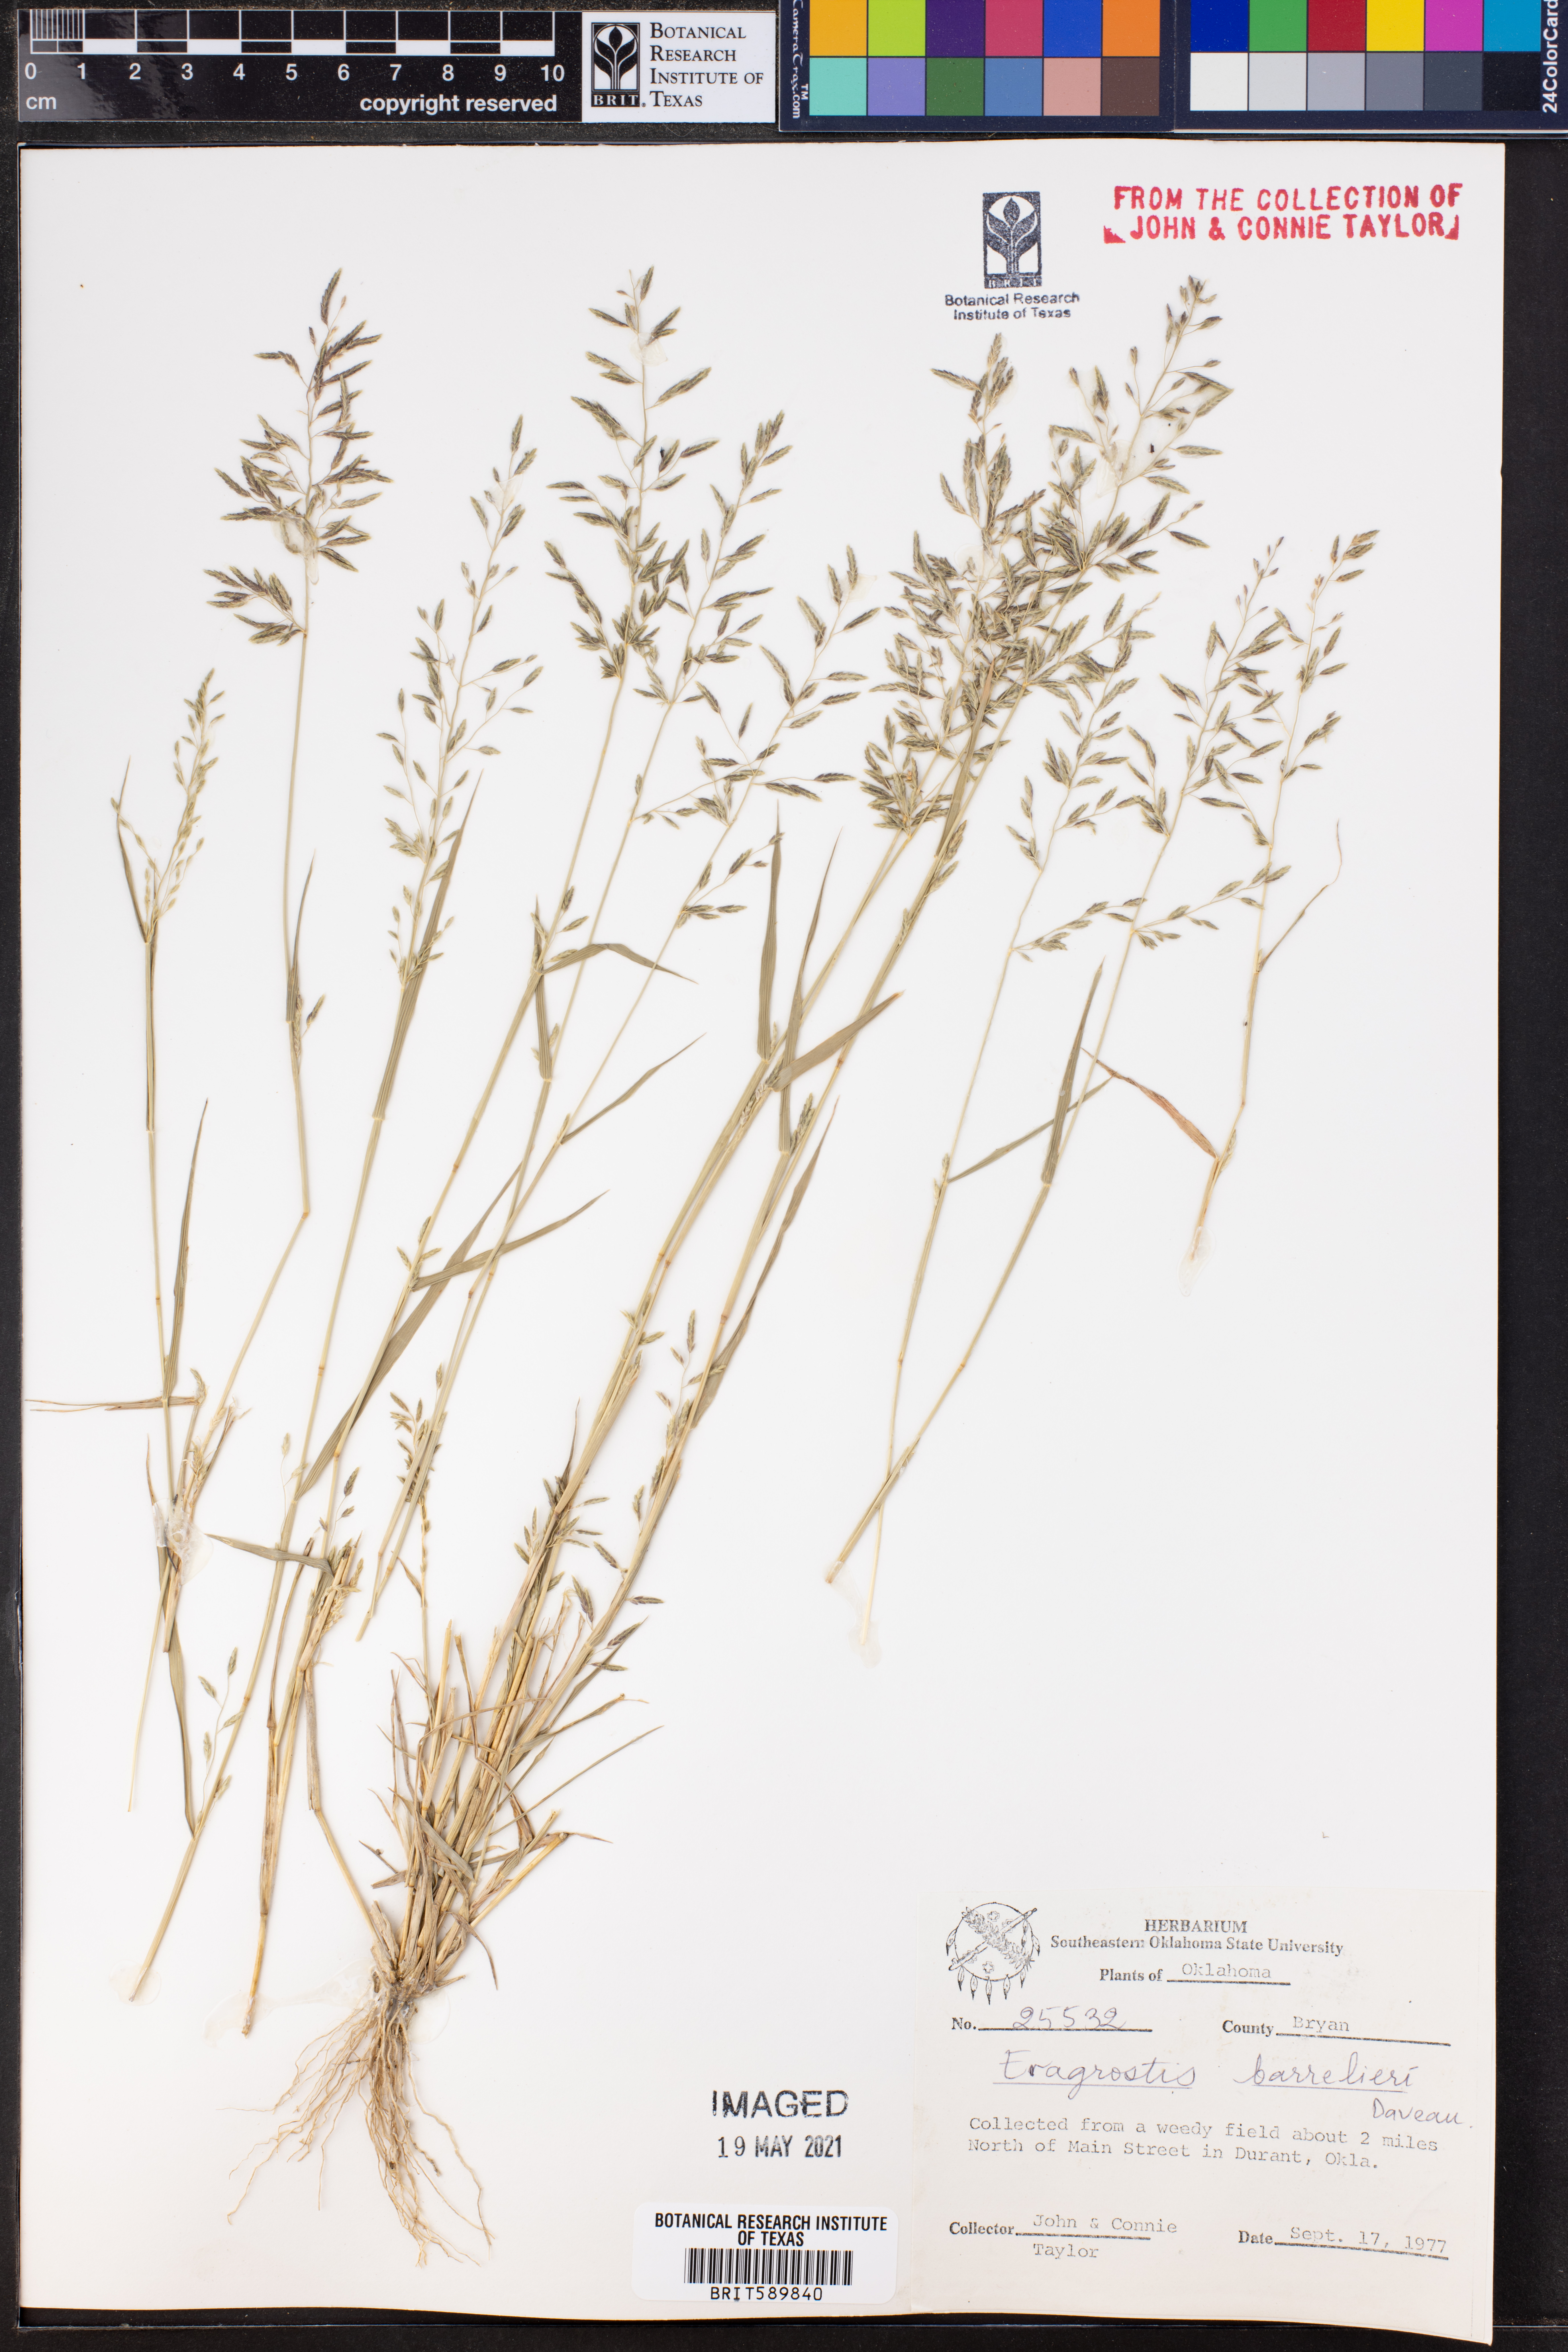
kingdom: Plantae
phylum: Tracheophyta
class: Liliopsida
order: Poales
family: Poaceae
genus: Eragrostis
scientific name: Eragrostis barrelieri
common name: Mediterranean lovegrass
